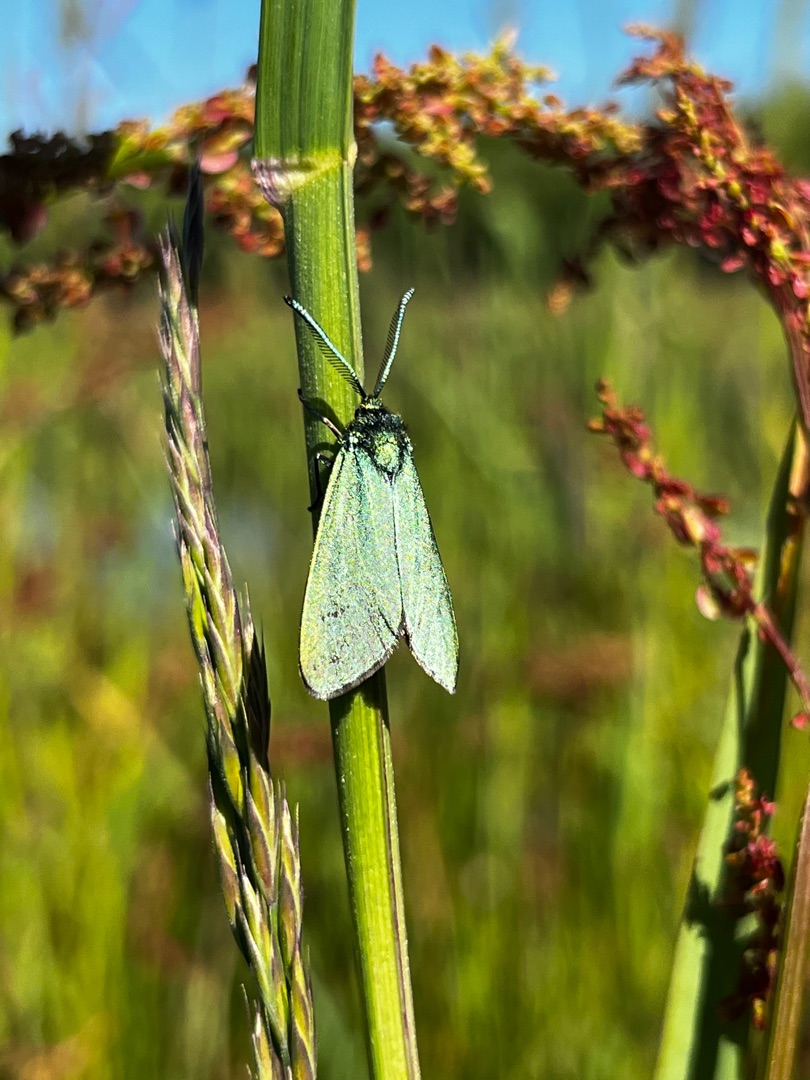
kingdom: Animalia
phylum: Arthropoda
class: Insecta
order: Lepidoptera
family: Zygaenidae
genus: Adscita
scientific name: Adscita statices
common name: Metalvinge
